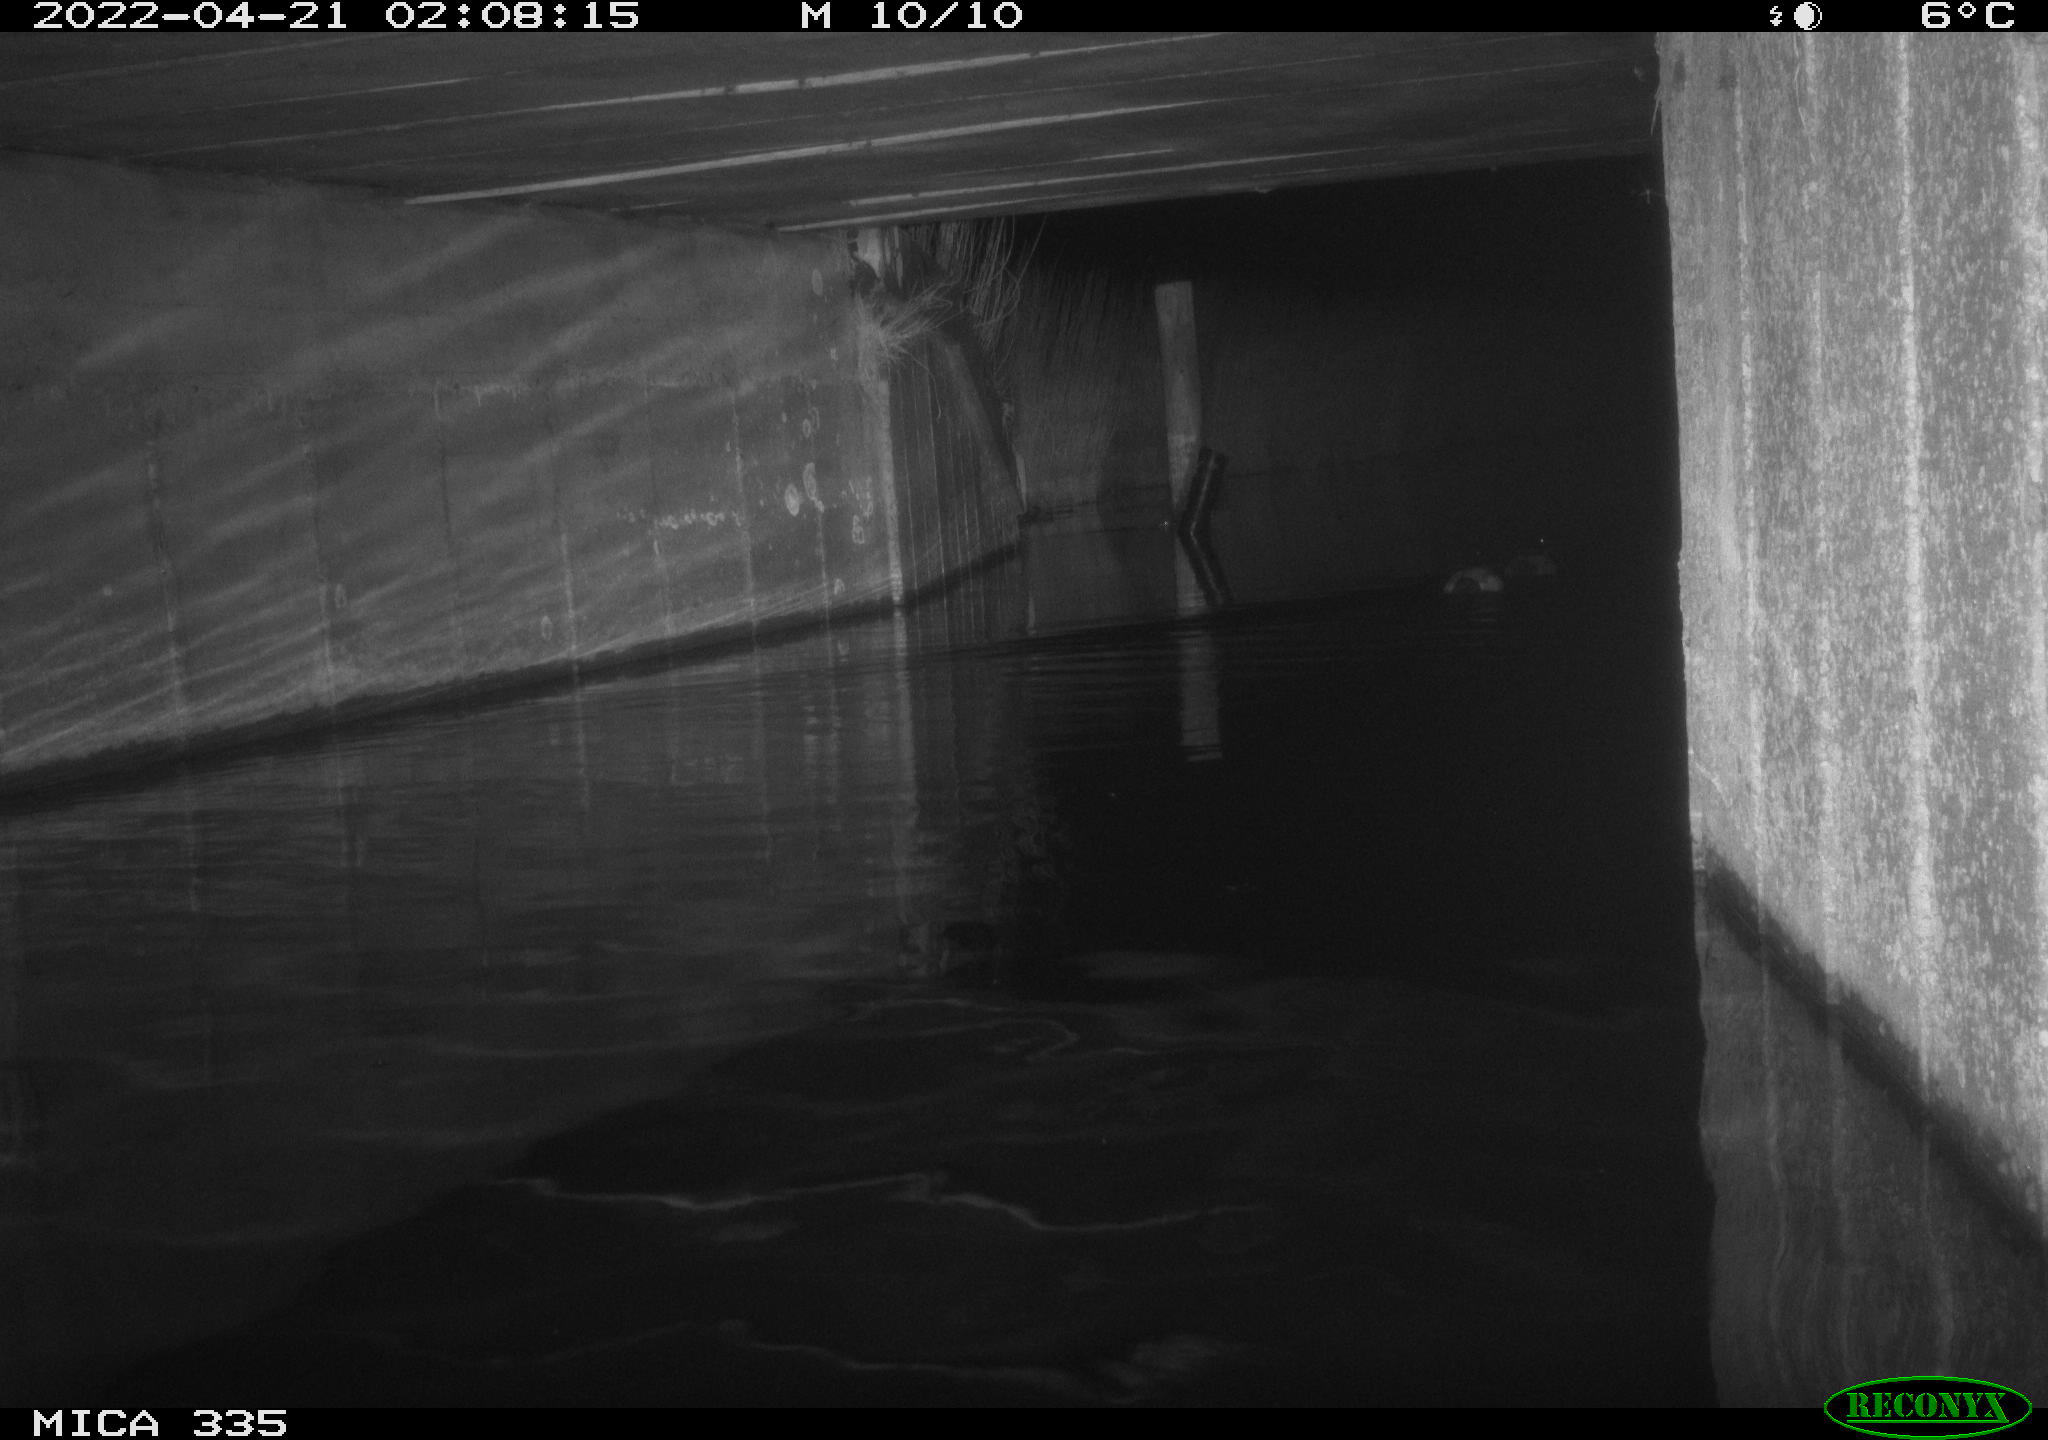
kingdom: Animalia
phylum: Chordata
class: Aves
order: Anseriformes
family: Anatidae
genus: Anas
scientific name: Anas platyrhynchos
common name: Mallard
